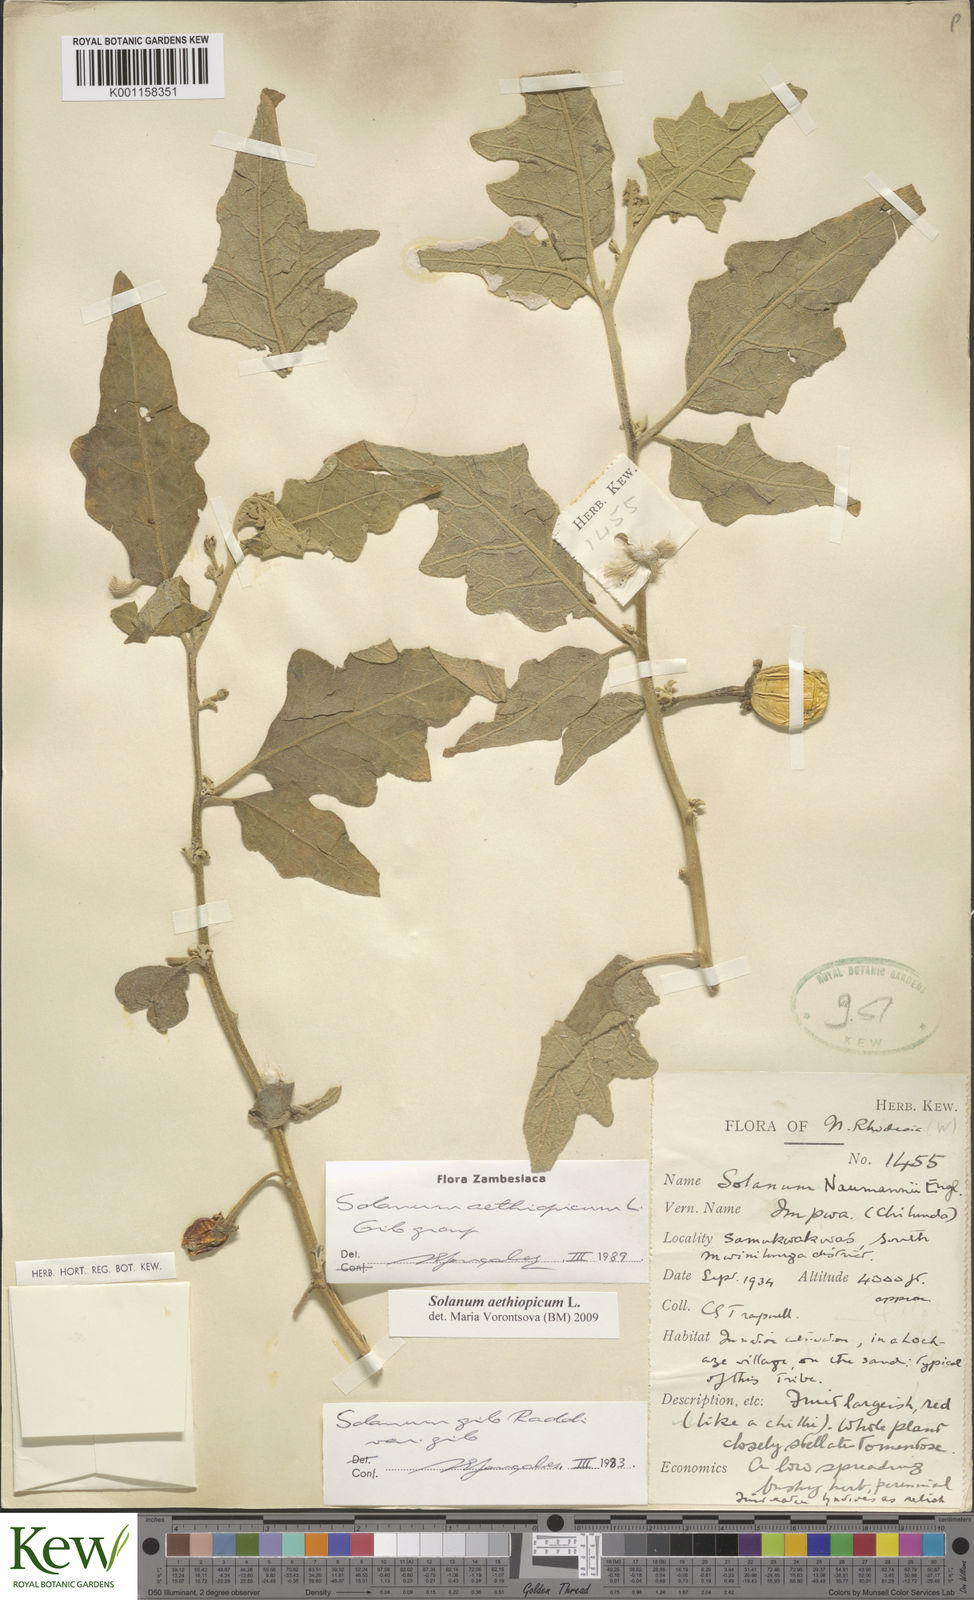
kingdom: Plantae
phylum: Tracheophyta
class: Magnoliopsida
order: Solanales
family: Solanaceae
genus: Solanum
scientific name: Solanum aethiopicum
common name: Gilo
